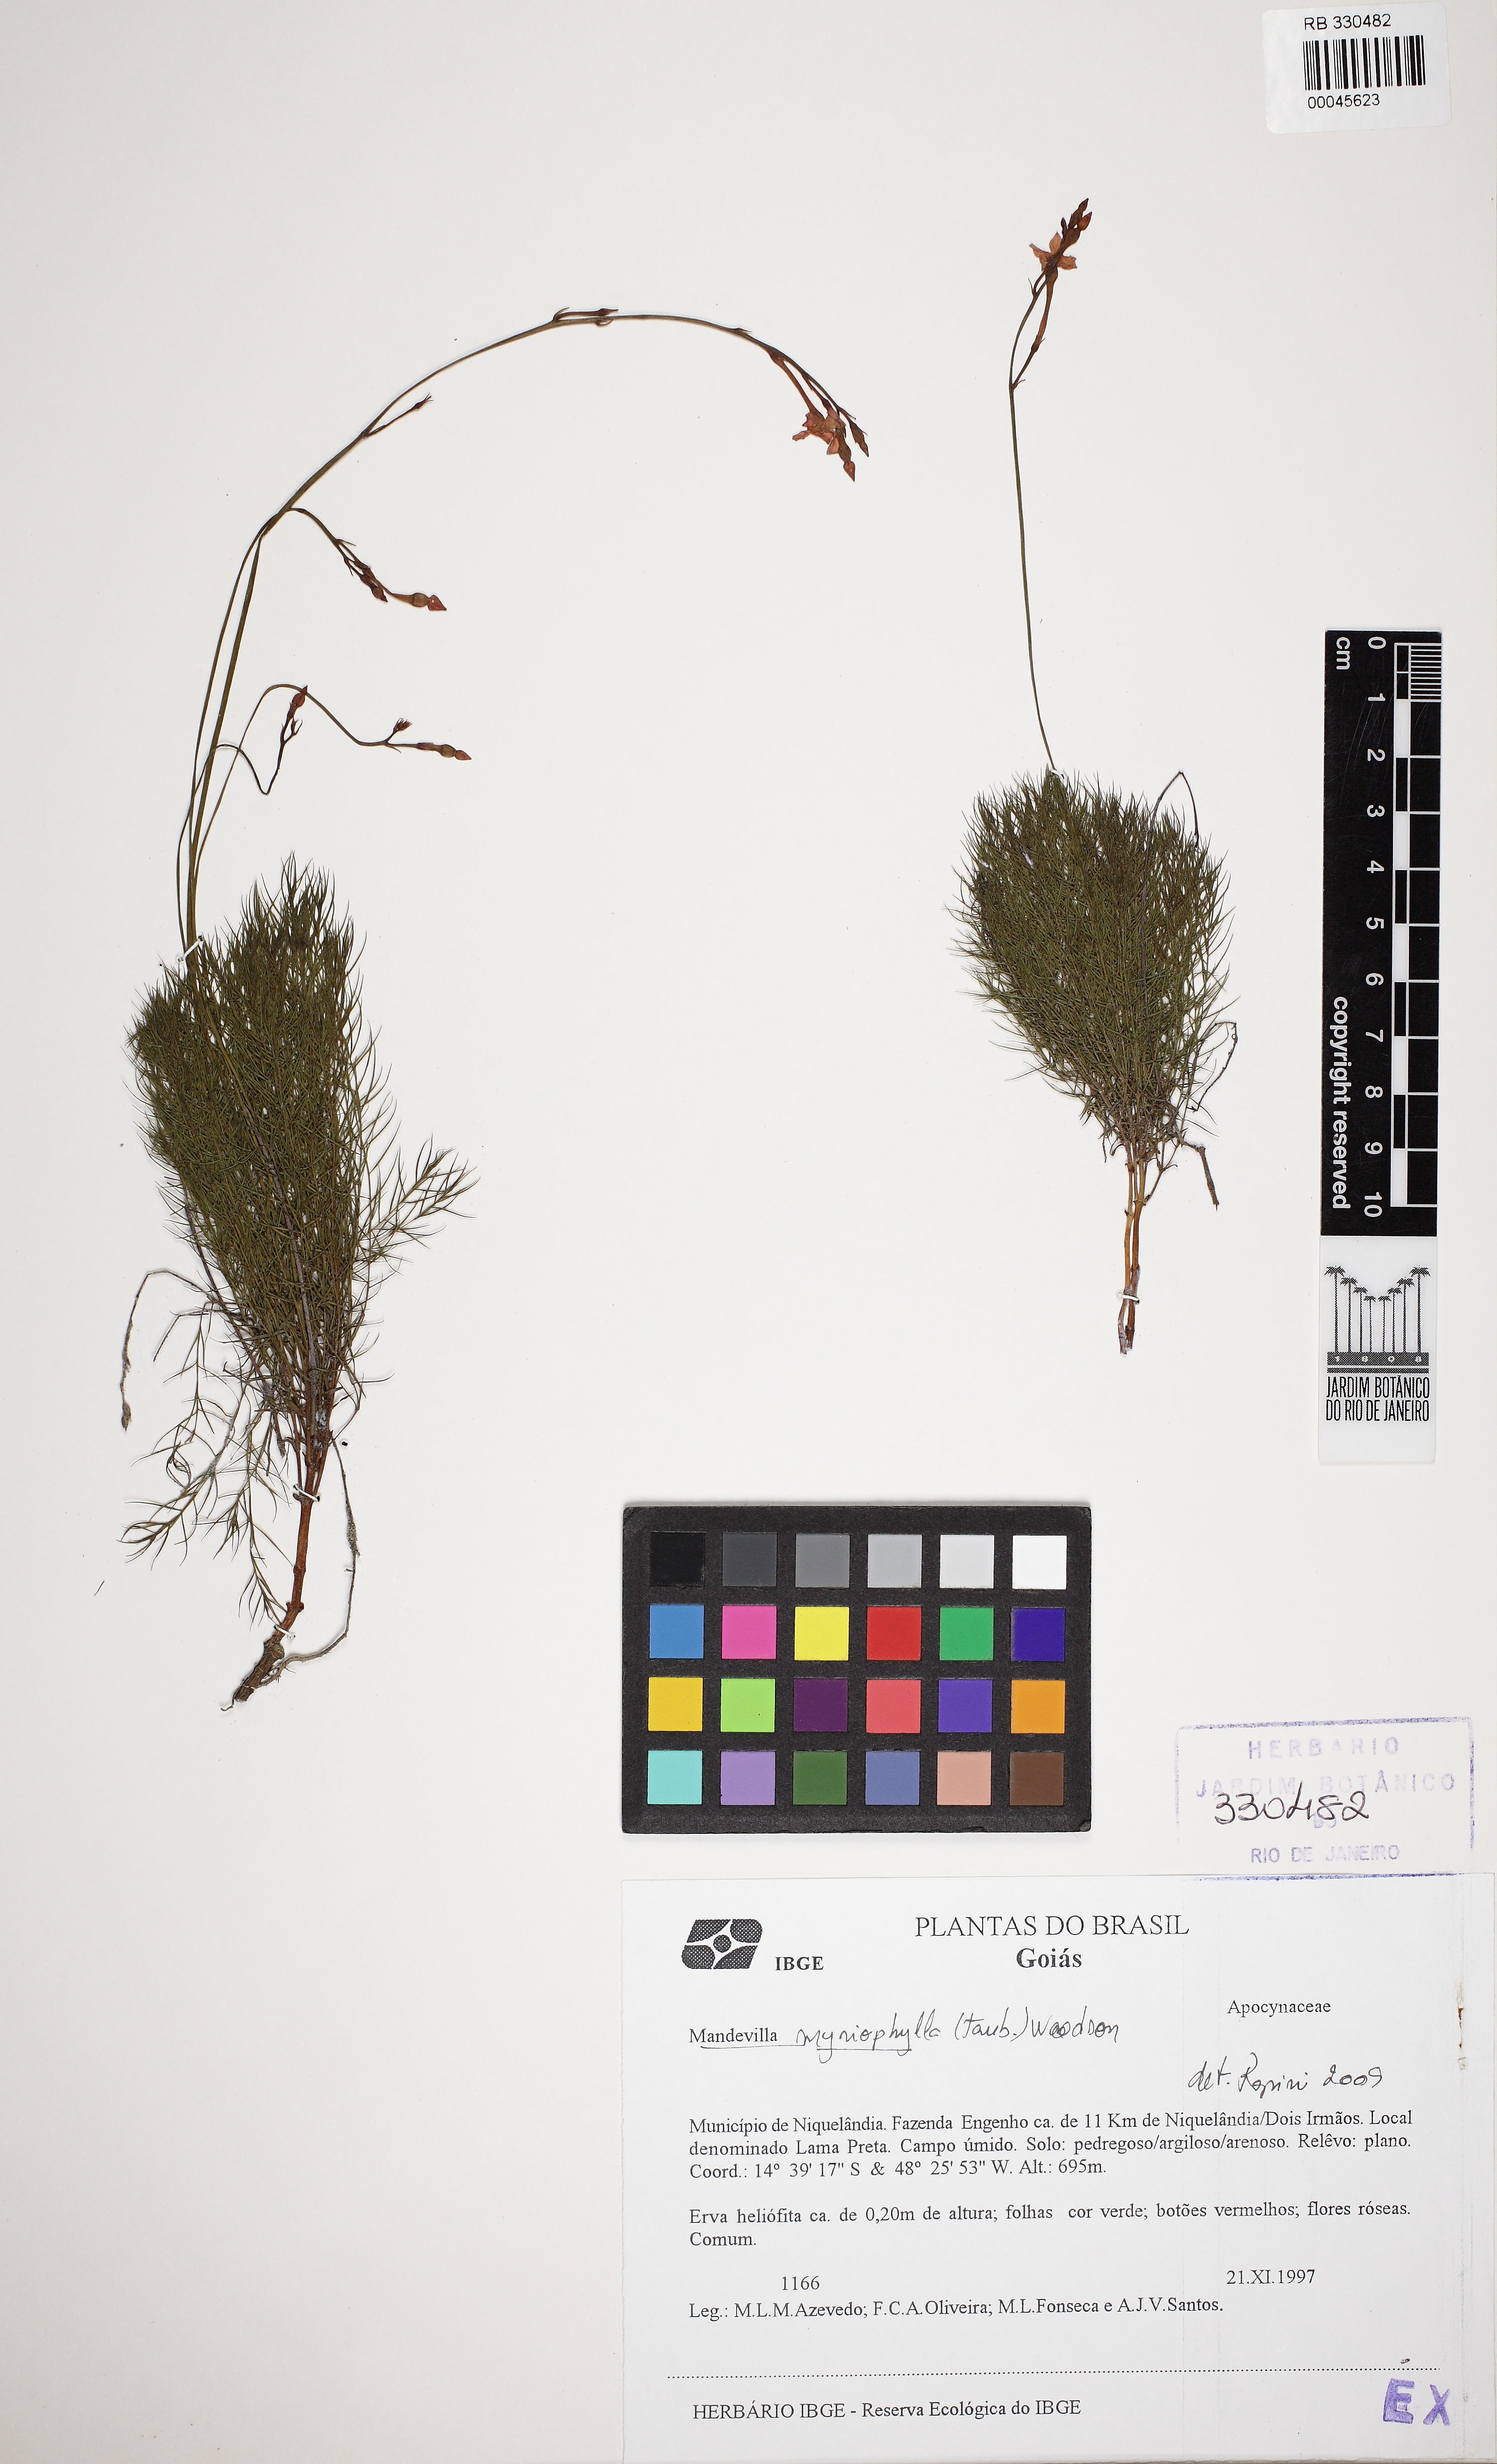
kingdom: Plantae
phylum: Tracheophyta
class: Magnoliopsida
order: Gentianales
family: Apocynaceae
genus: Mandevilla
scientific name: Mandevilla myriophyllum
